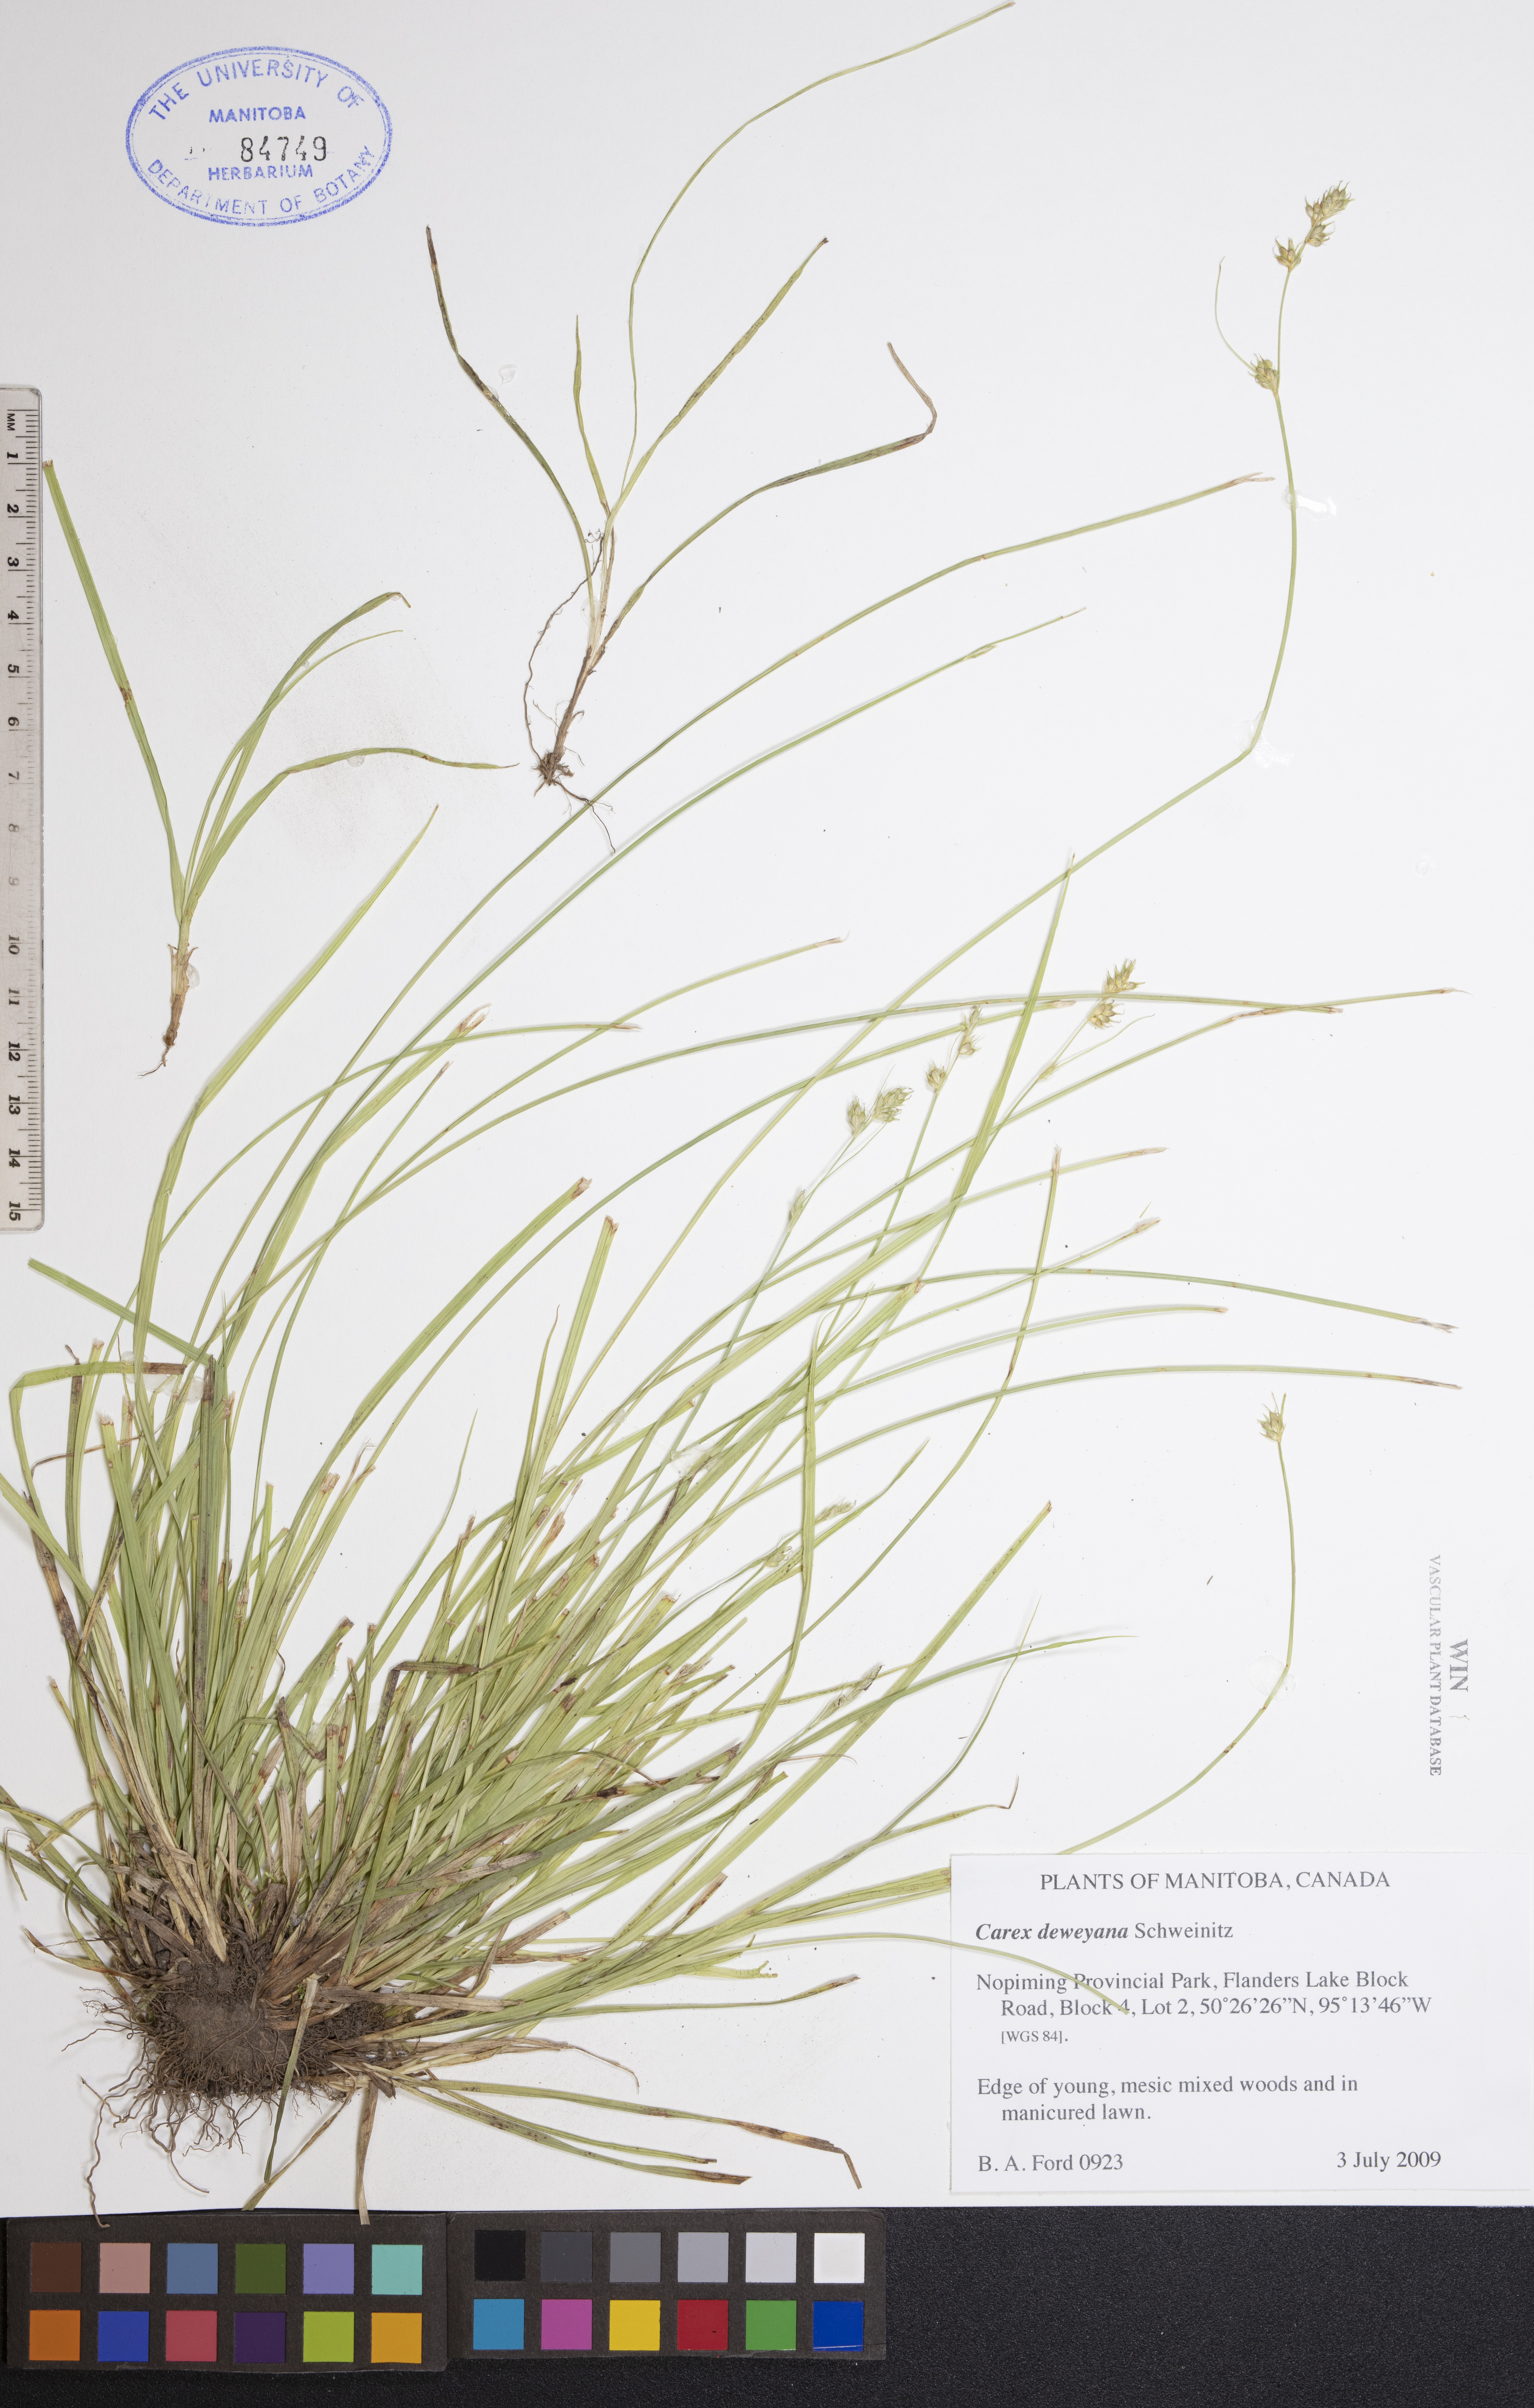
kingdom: Plantae
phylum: Tracheophyta
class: Liliopsida
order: Poales
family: Cyperaceae
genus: Carex
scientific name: Carex deweyana
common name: Dewey's sedge
